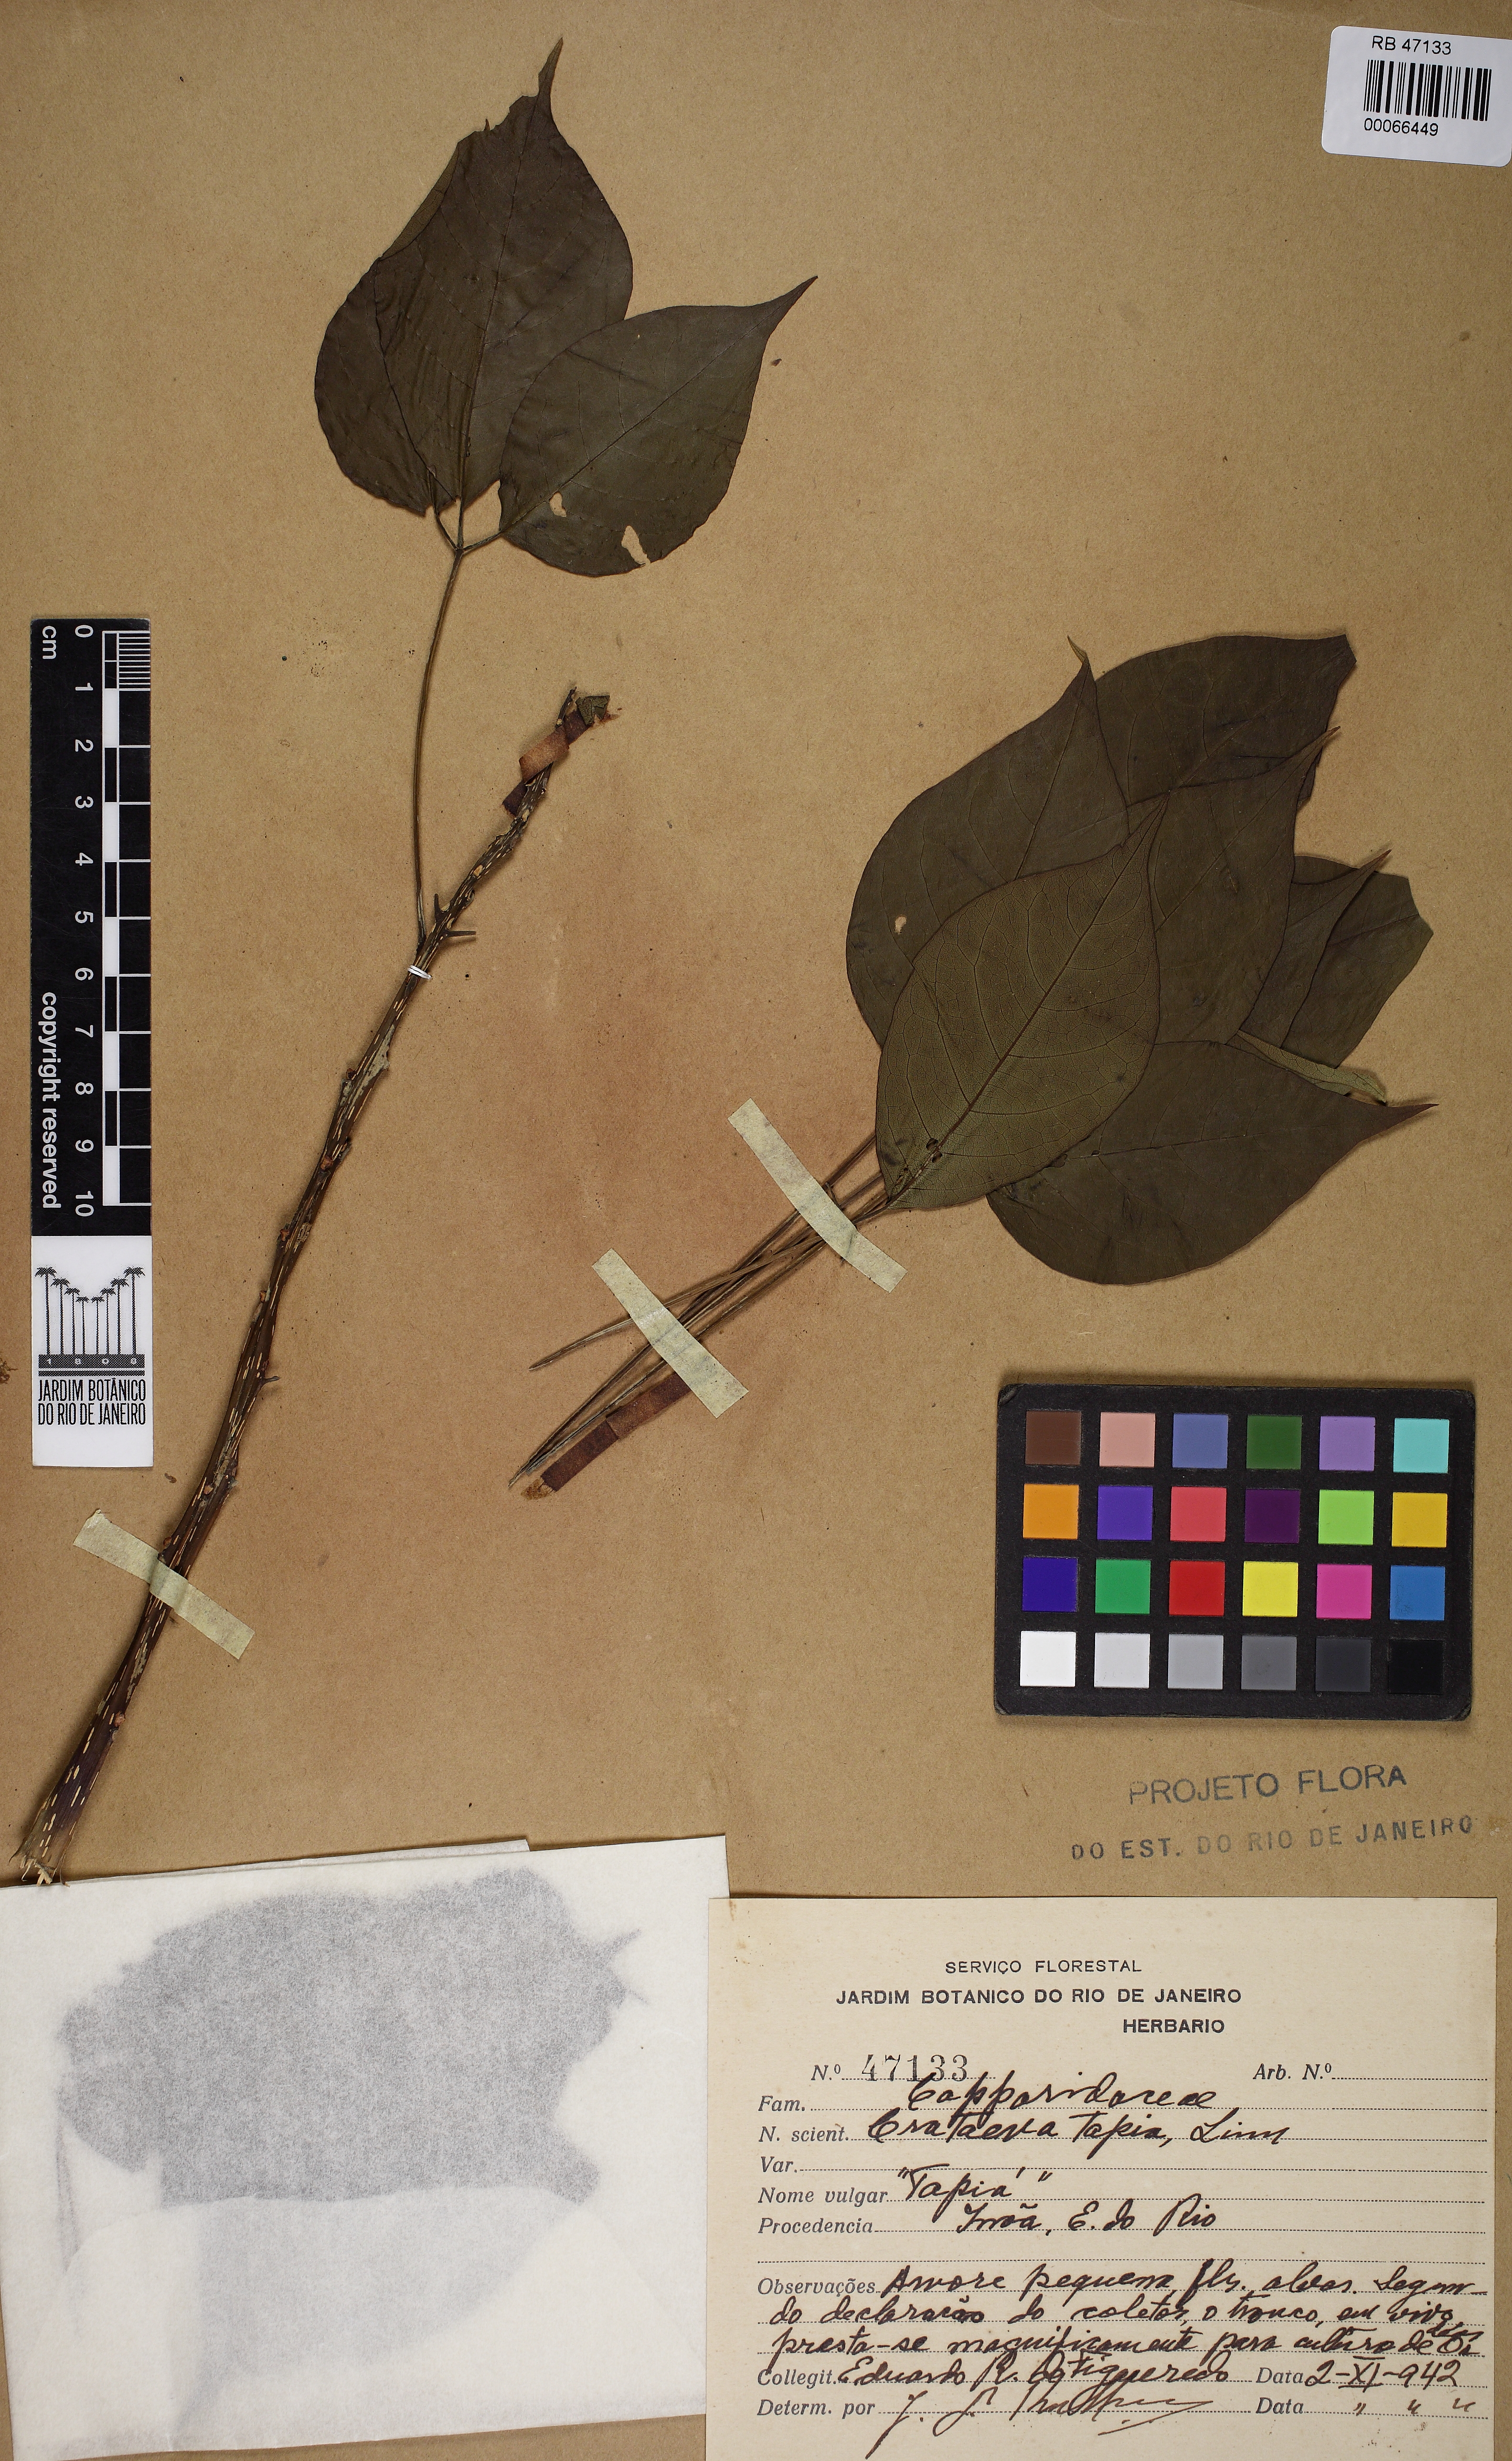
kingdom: Plantae
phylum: Tracheophyta
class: Magnoliopsida
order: Brassicales
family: Capparaceae
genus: Crateva
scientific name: Crateva tapia
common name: Garlic-pear
